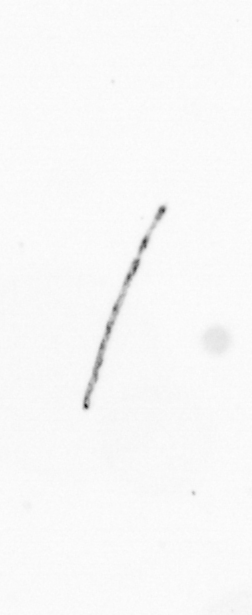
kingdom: Chromista
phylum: Ochrophyta
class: Bacillariophyceae
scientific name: Bacillariophyceae
